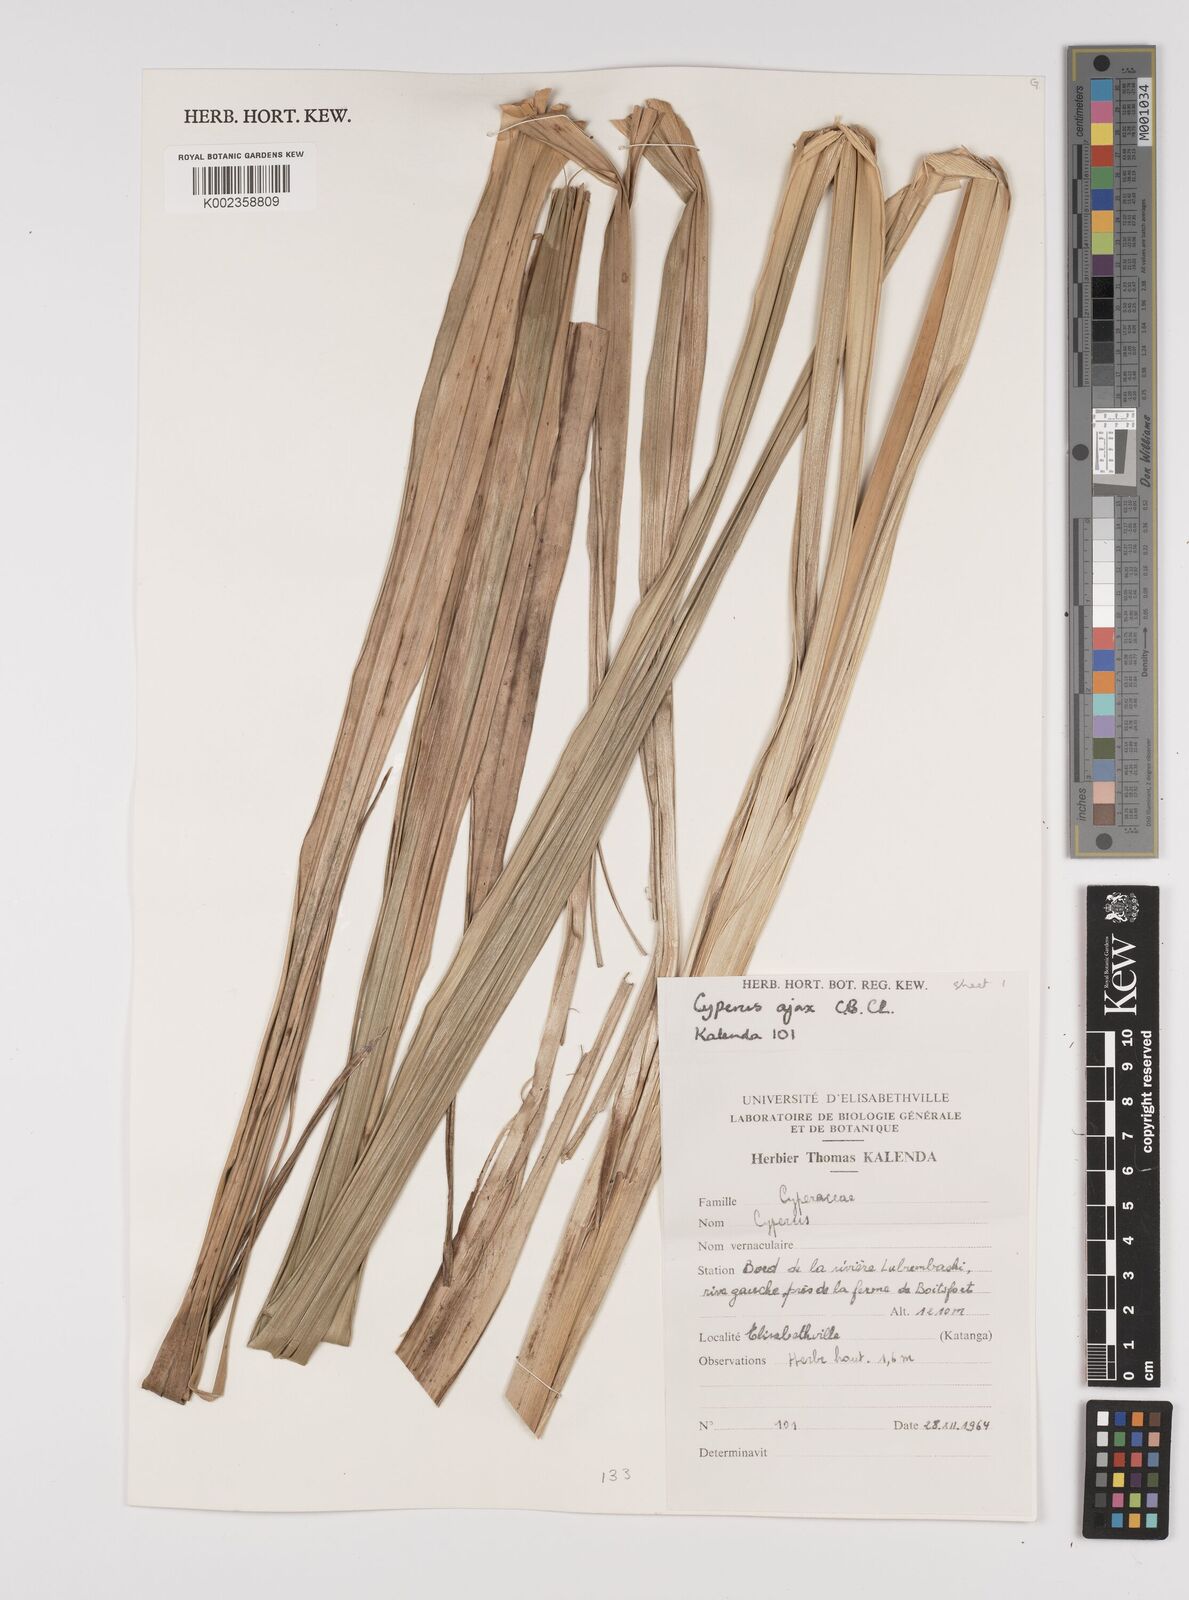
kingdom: Plantae
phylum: Tracheophyta
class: Liliopsida
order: Poales
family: Cyperaceae
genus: Cyperus
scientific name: Cyperus ajax
